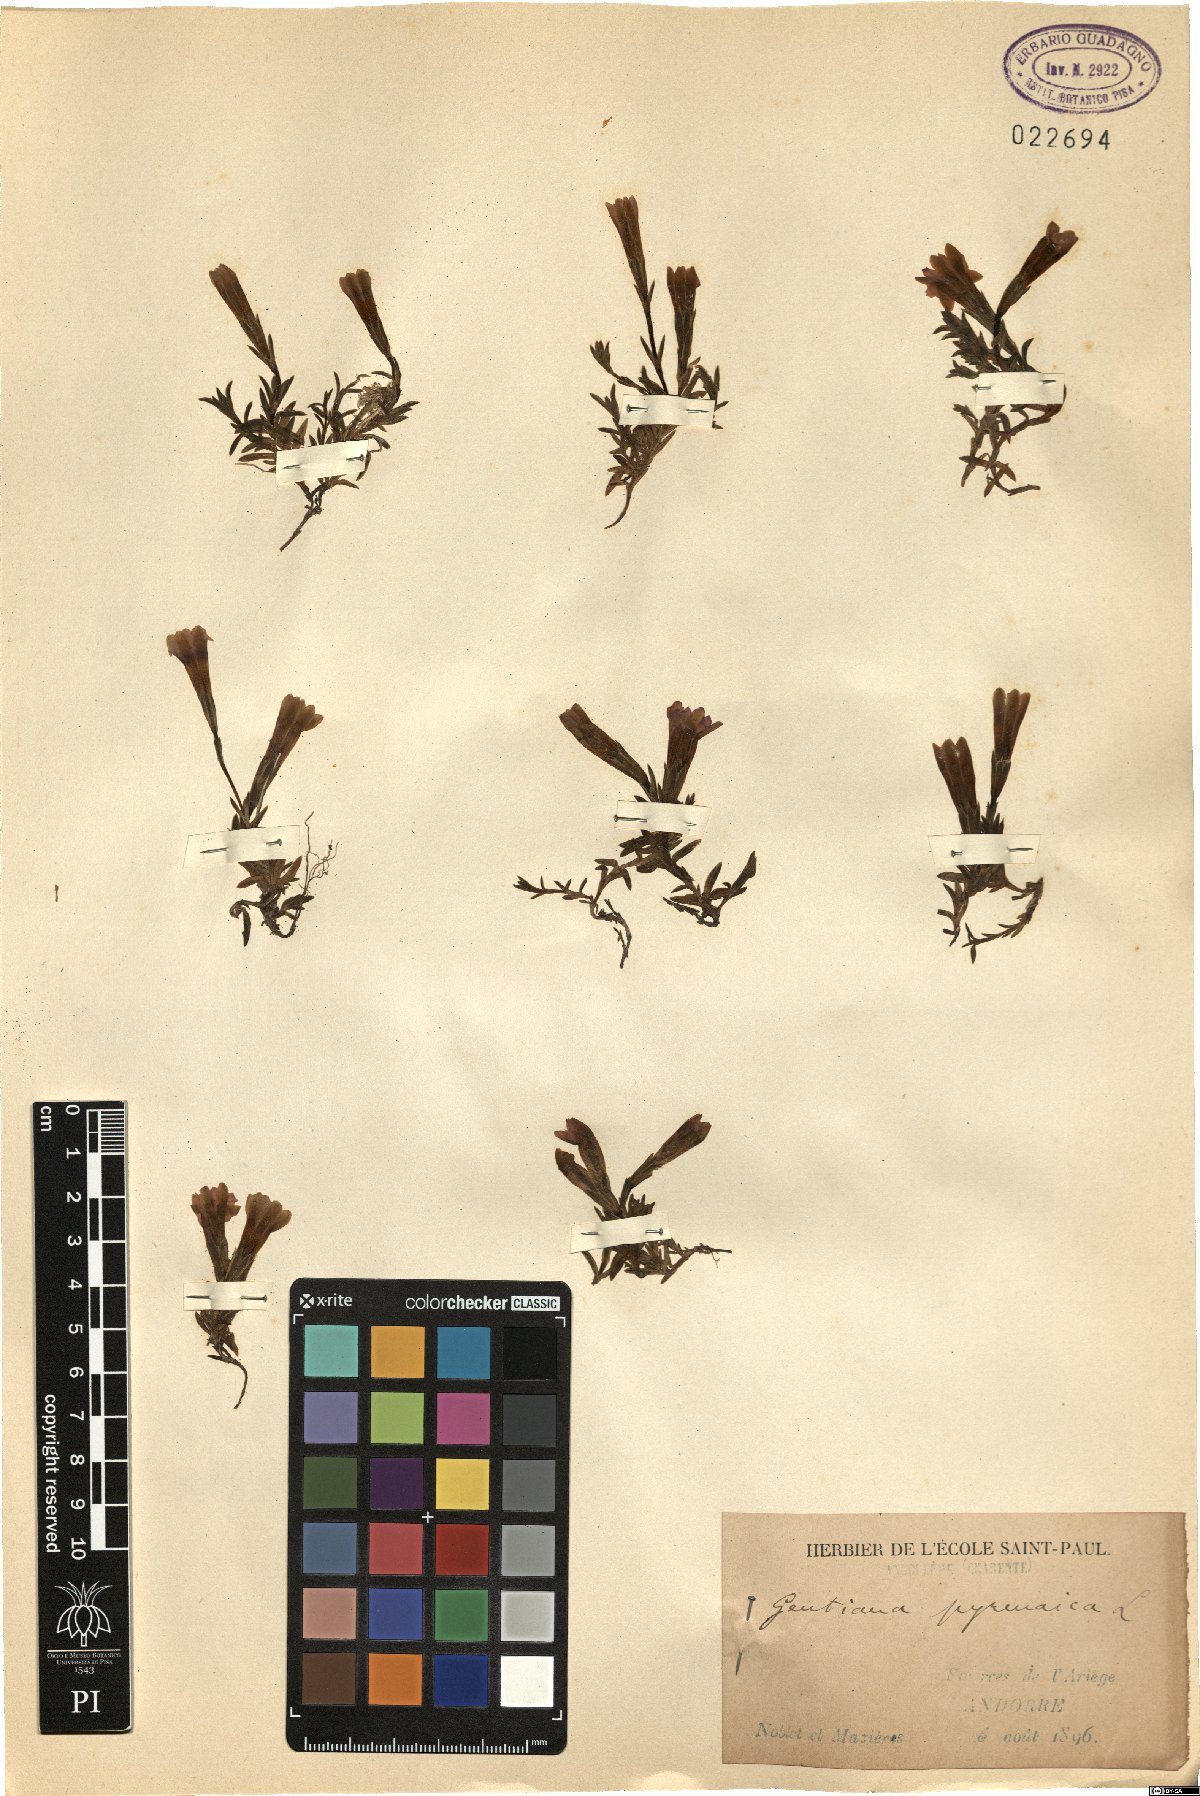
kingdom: Plantae
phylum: Tracheophyta
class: Magnoliopsida
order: Gentianales
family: Gentianaceae
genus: Gentiana
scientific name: Gentiana pyrenaica
